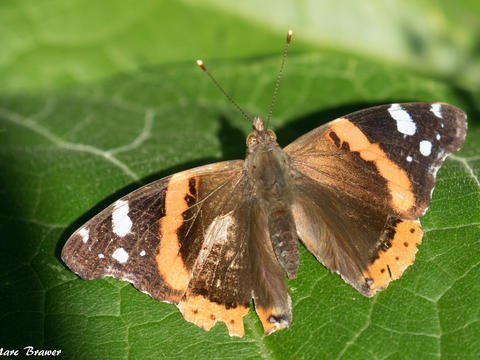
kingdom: Animalia
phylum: Arthropoda
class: Insecta
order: Lepidoptera
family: Nymphalidae
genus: Vanessa
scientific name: Vanessa atalanta
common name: Red Admiral
